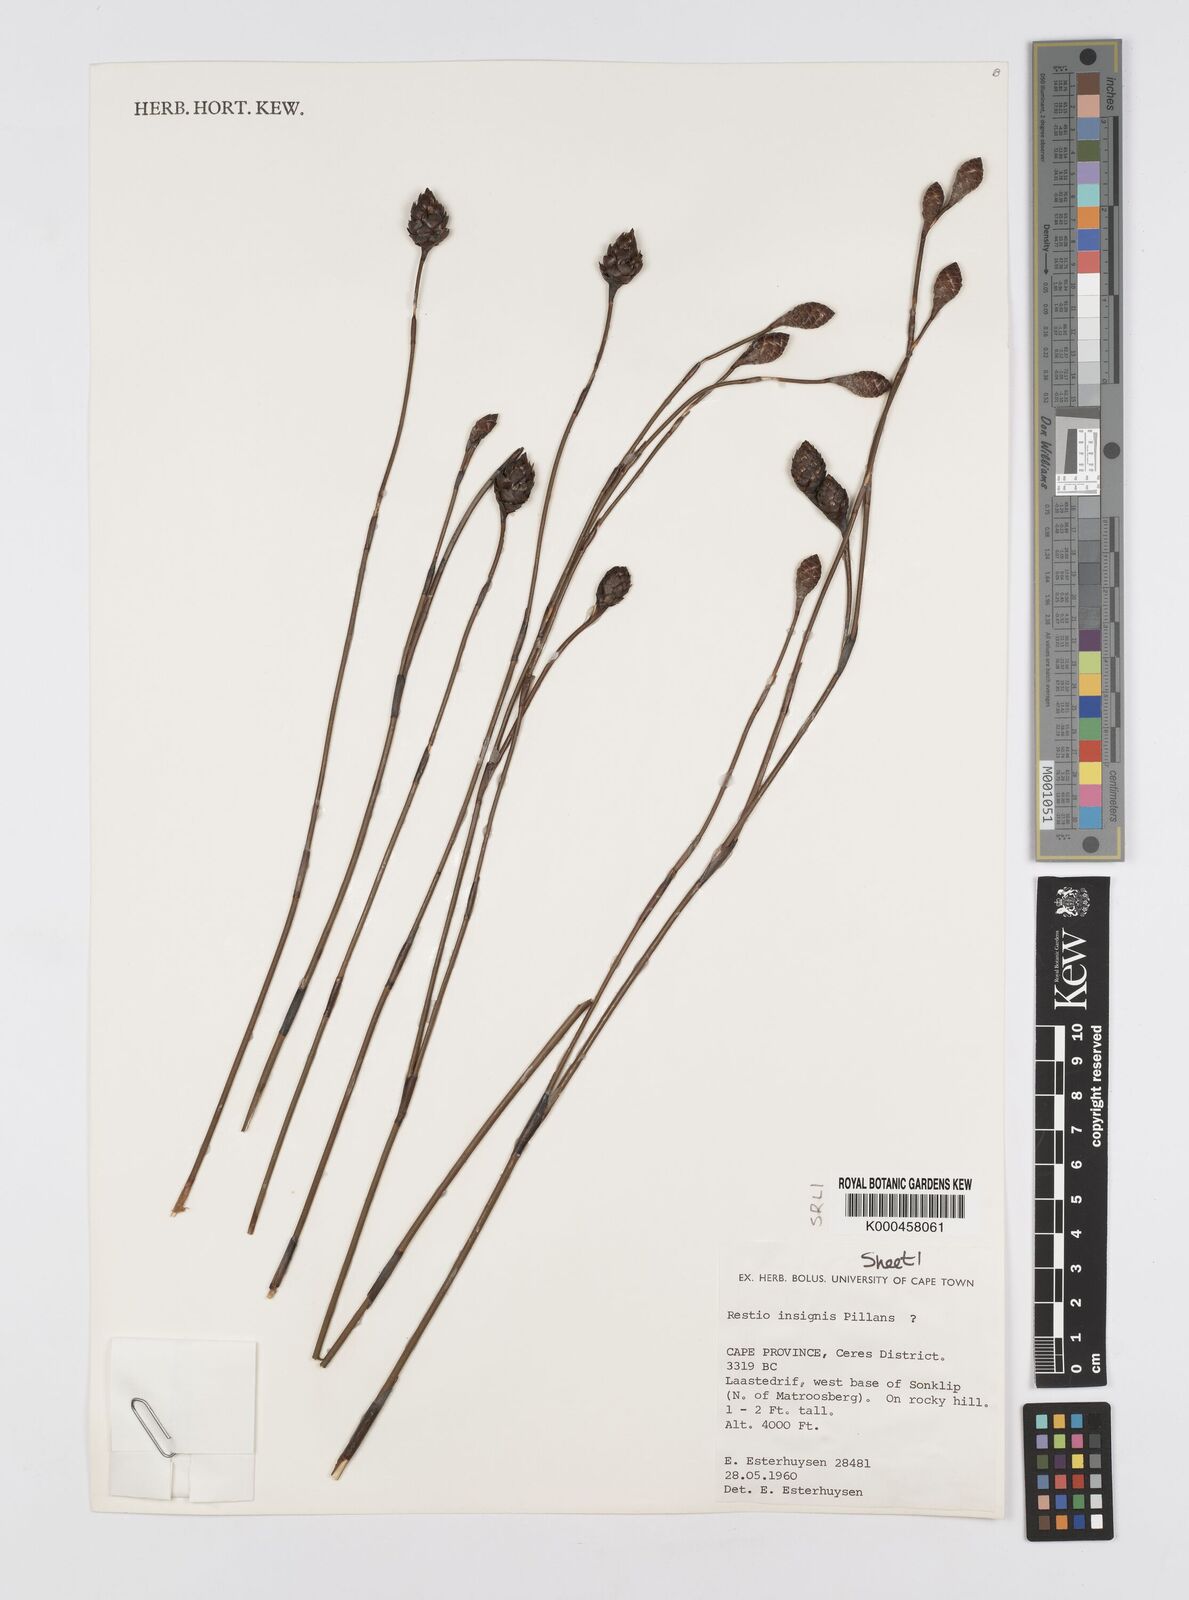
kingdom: Plantae
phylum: Tracheophyta
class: Liliopsida
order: Poales
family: Restionaceae
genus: Restio
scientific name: Restio insignis
